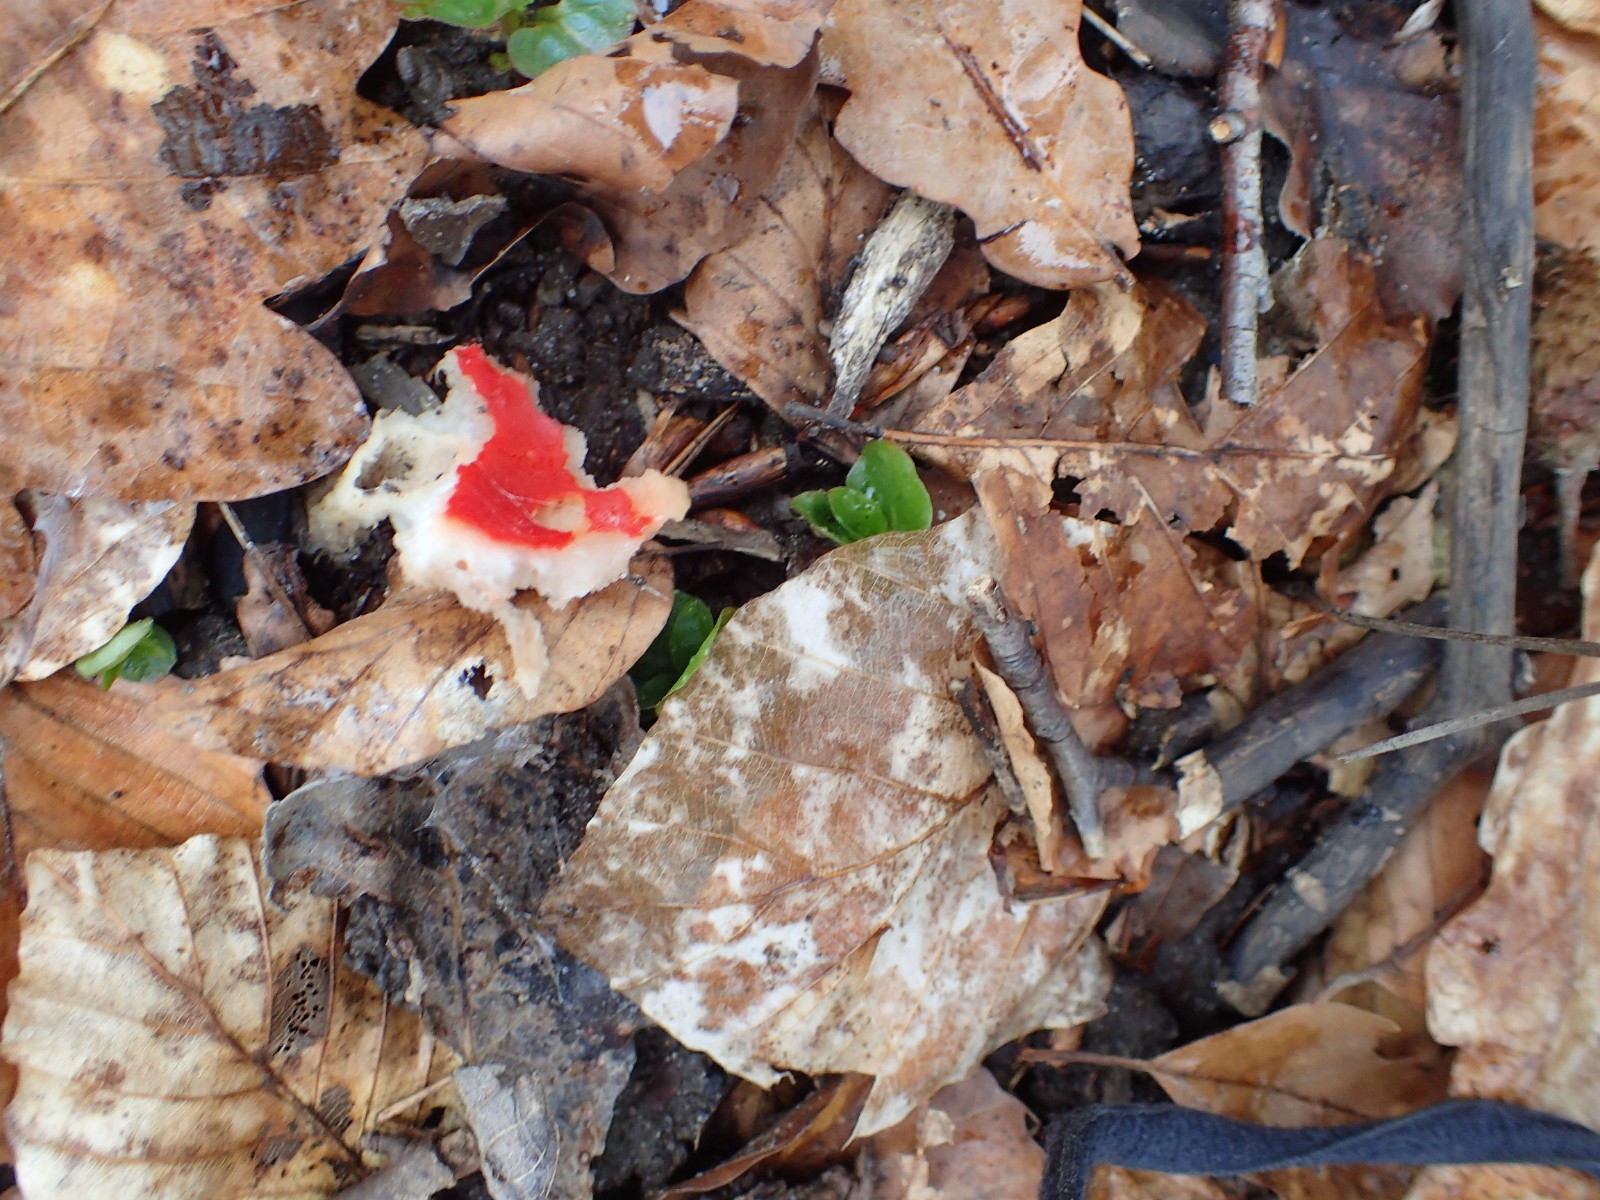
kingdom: Fungi
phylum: Ascomycota
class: Pezizomycetes
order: Pezizales
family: Sarcoscyphaceae
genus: Sarcoscypha
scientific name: Sarcoscypha austriaca
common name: krølhåret pragtbæger
